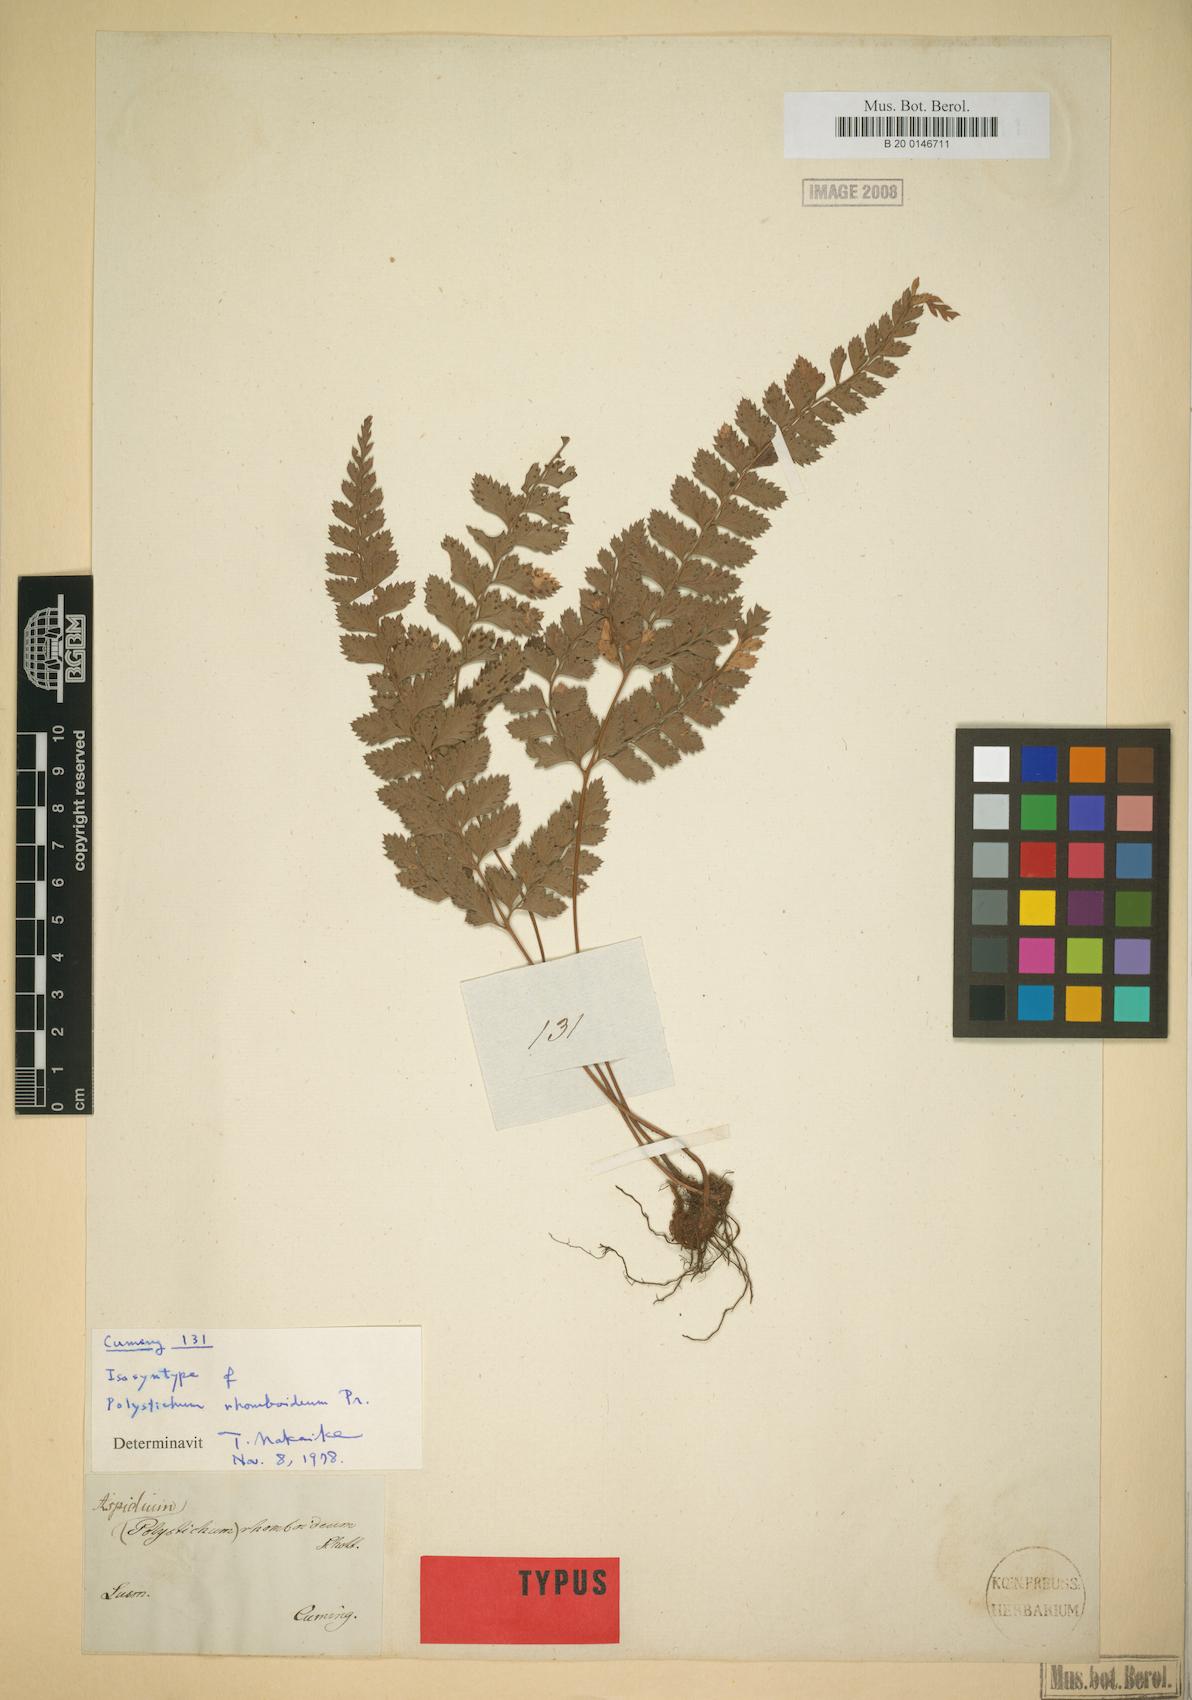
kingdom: Plantae
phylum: Tracheophyta
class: Polypodiopsida
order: Polypodiales
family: Dryopteridaceae
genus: Arachniodes
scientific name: Arachniodes amabilis
